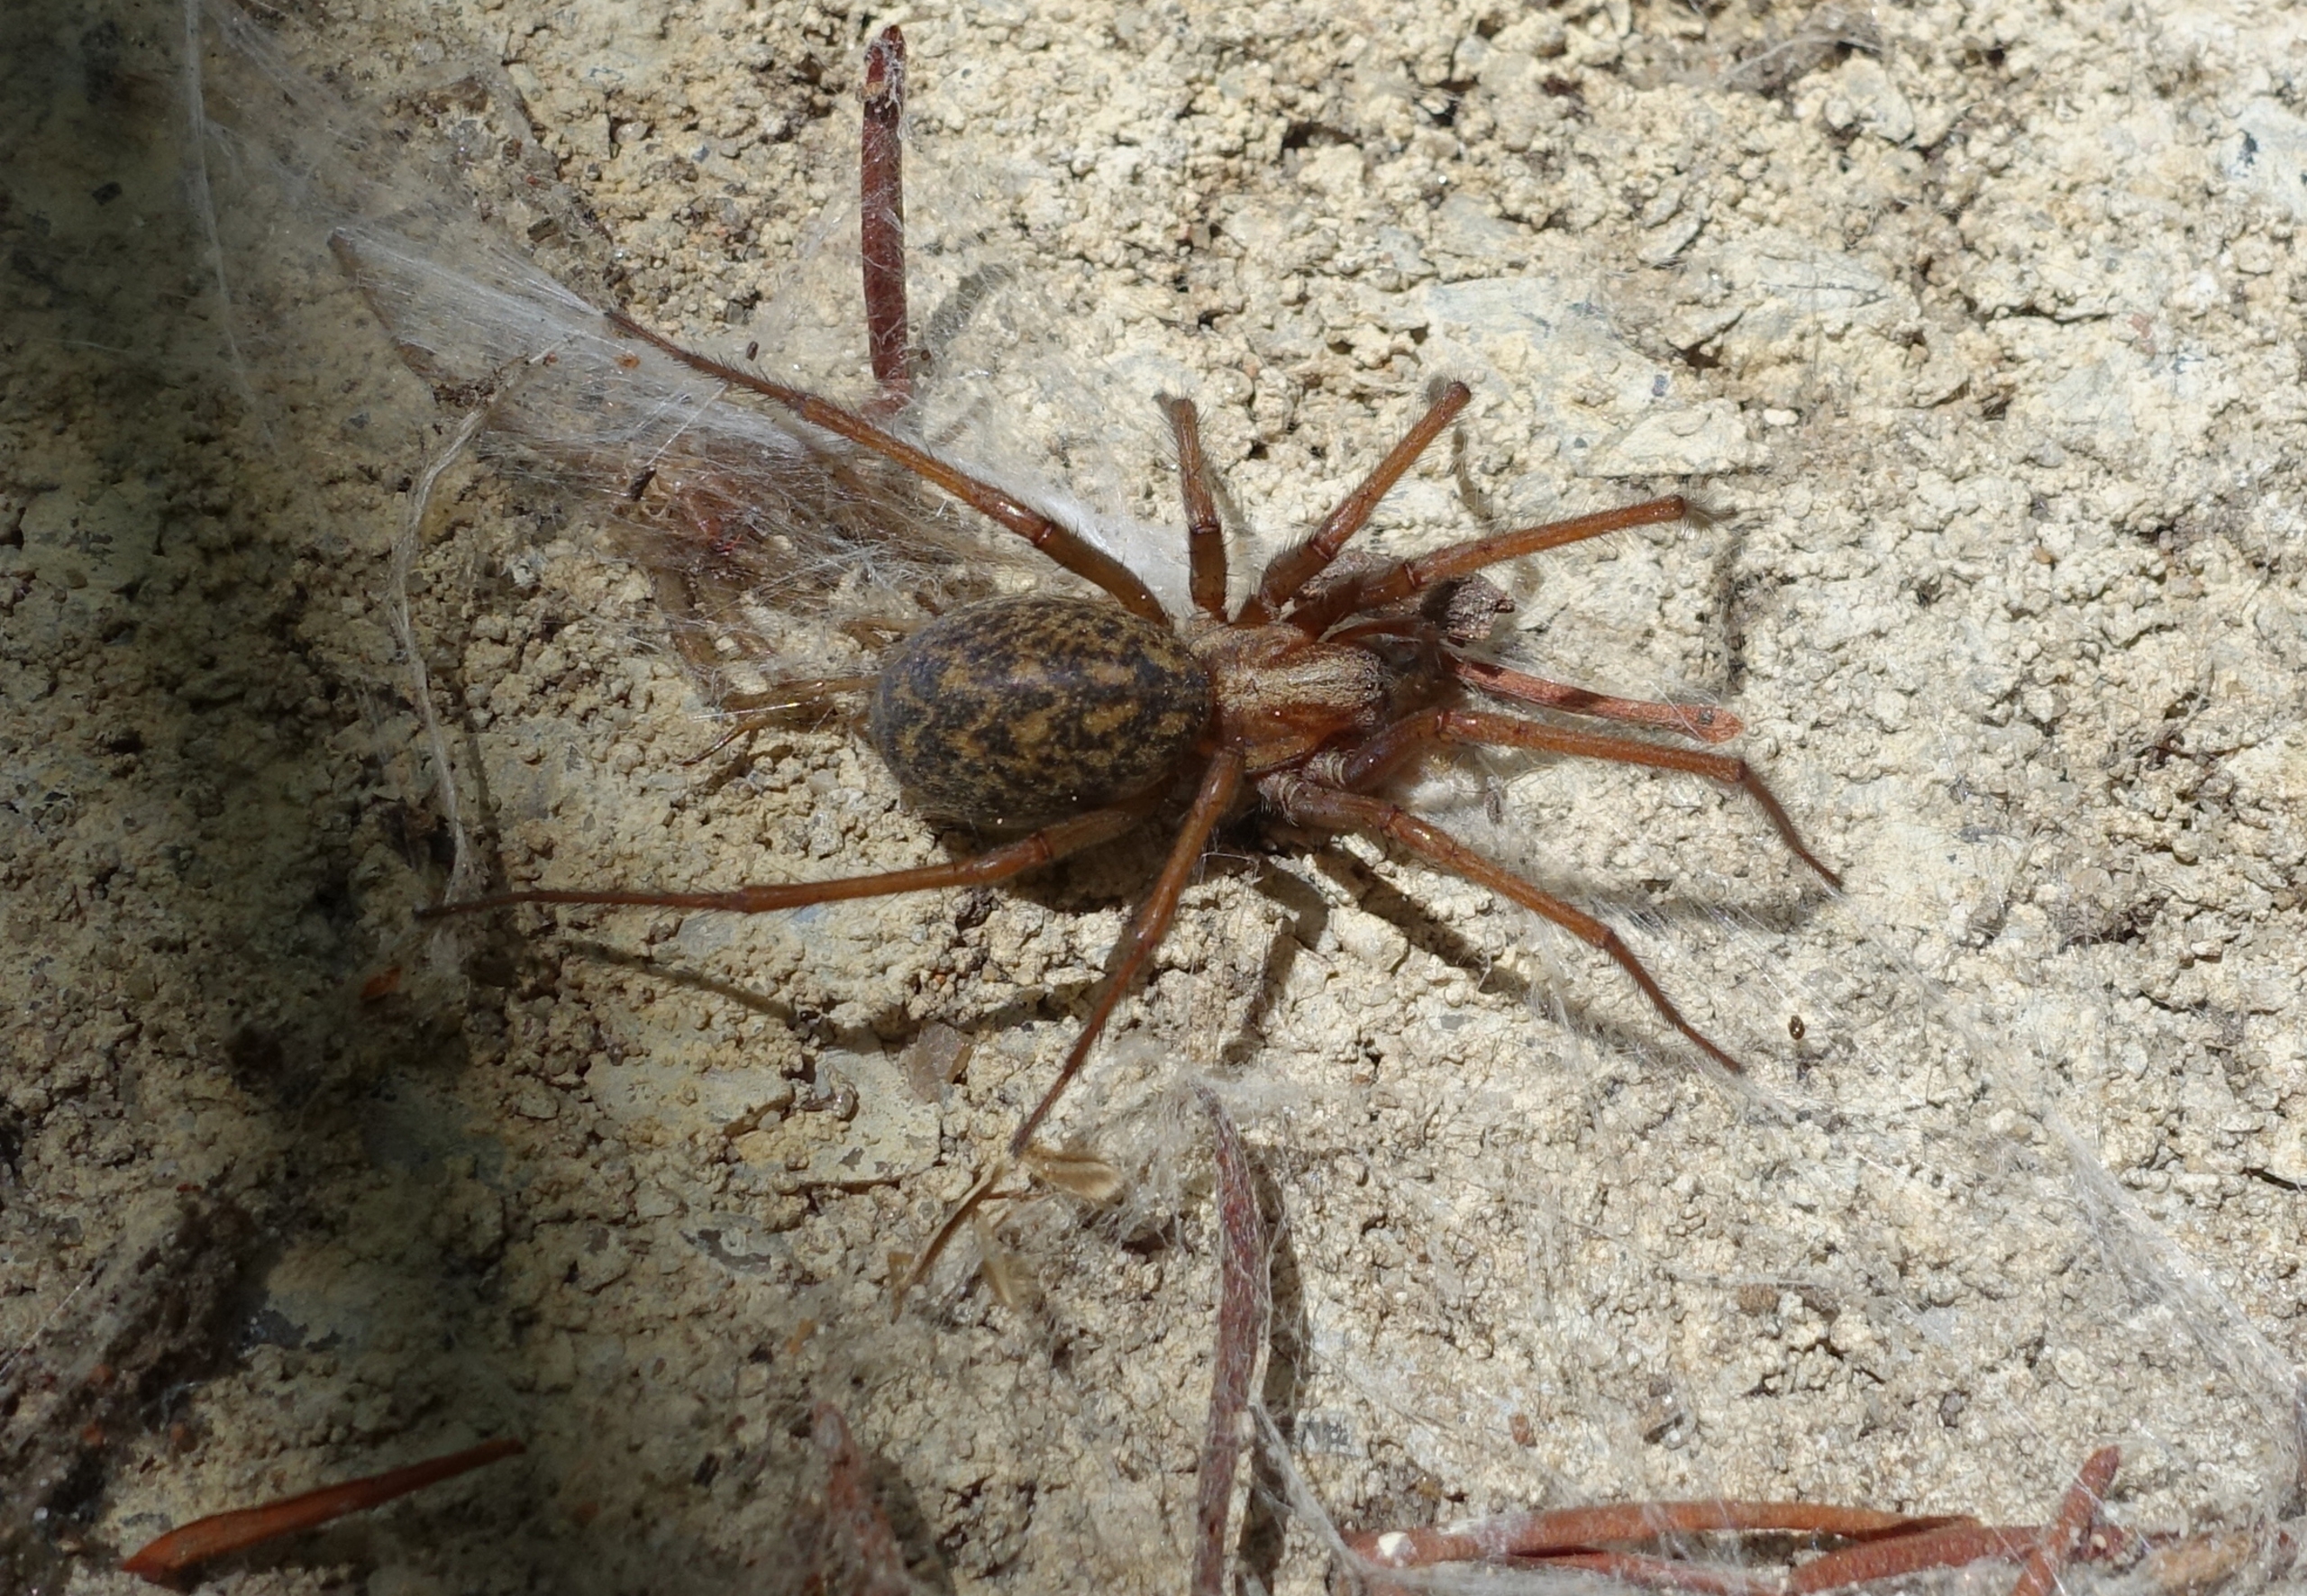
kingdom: Animalia
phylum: Arthropoda
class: Arachnida
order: Araneae
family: Agelenidae
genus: Eratigena
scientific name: Eratigena atrica
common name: Stor husedderkop
